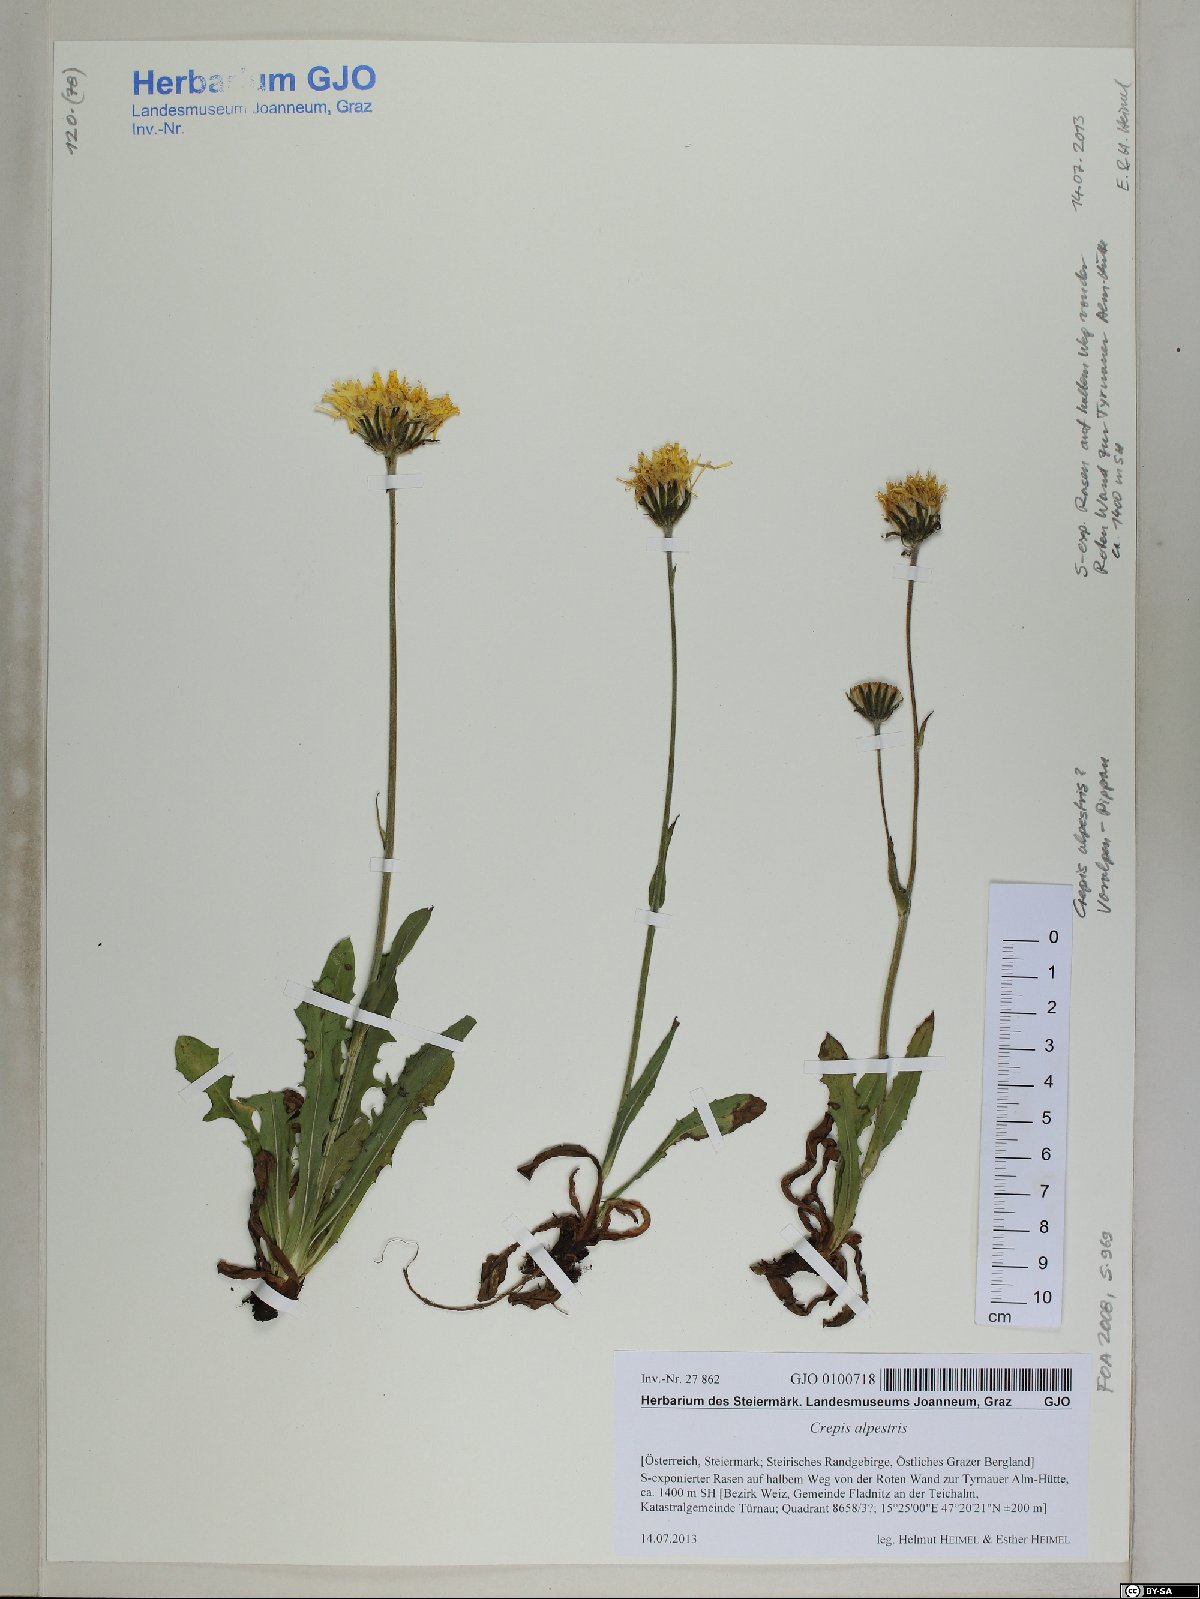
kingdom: Plantae
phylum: Tracheophyta
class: Magnoliopsida
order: Asterales
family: Asteraceae
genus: Crepis
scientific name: Crepis alpestris
